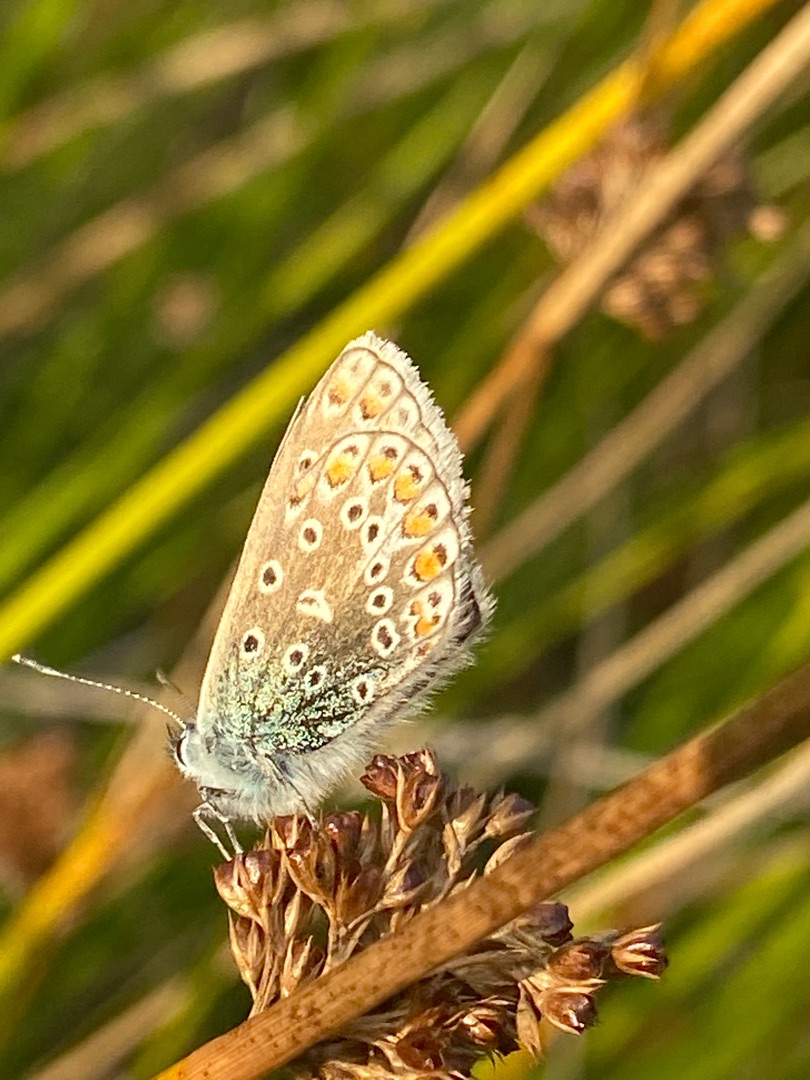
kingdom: Animalia
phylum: Arthropoda
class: Insecta
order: Lepidoptera
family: Lycaenidae
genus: Polyommatus
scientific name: Polyommatus icarus
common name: Almindelig blåfugl
